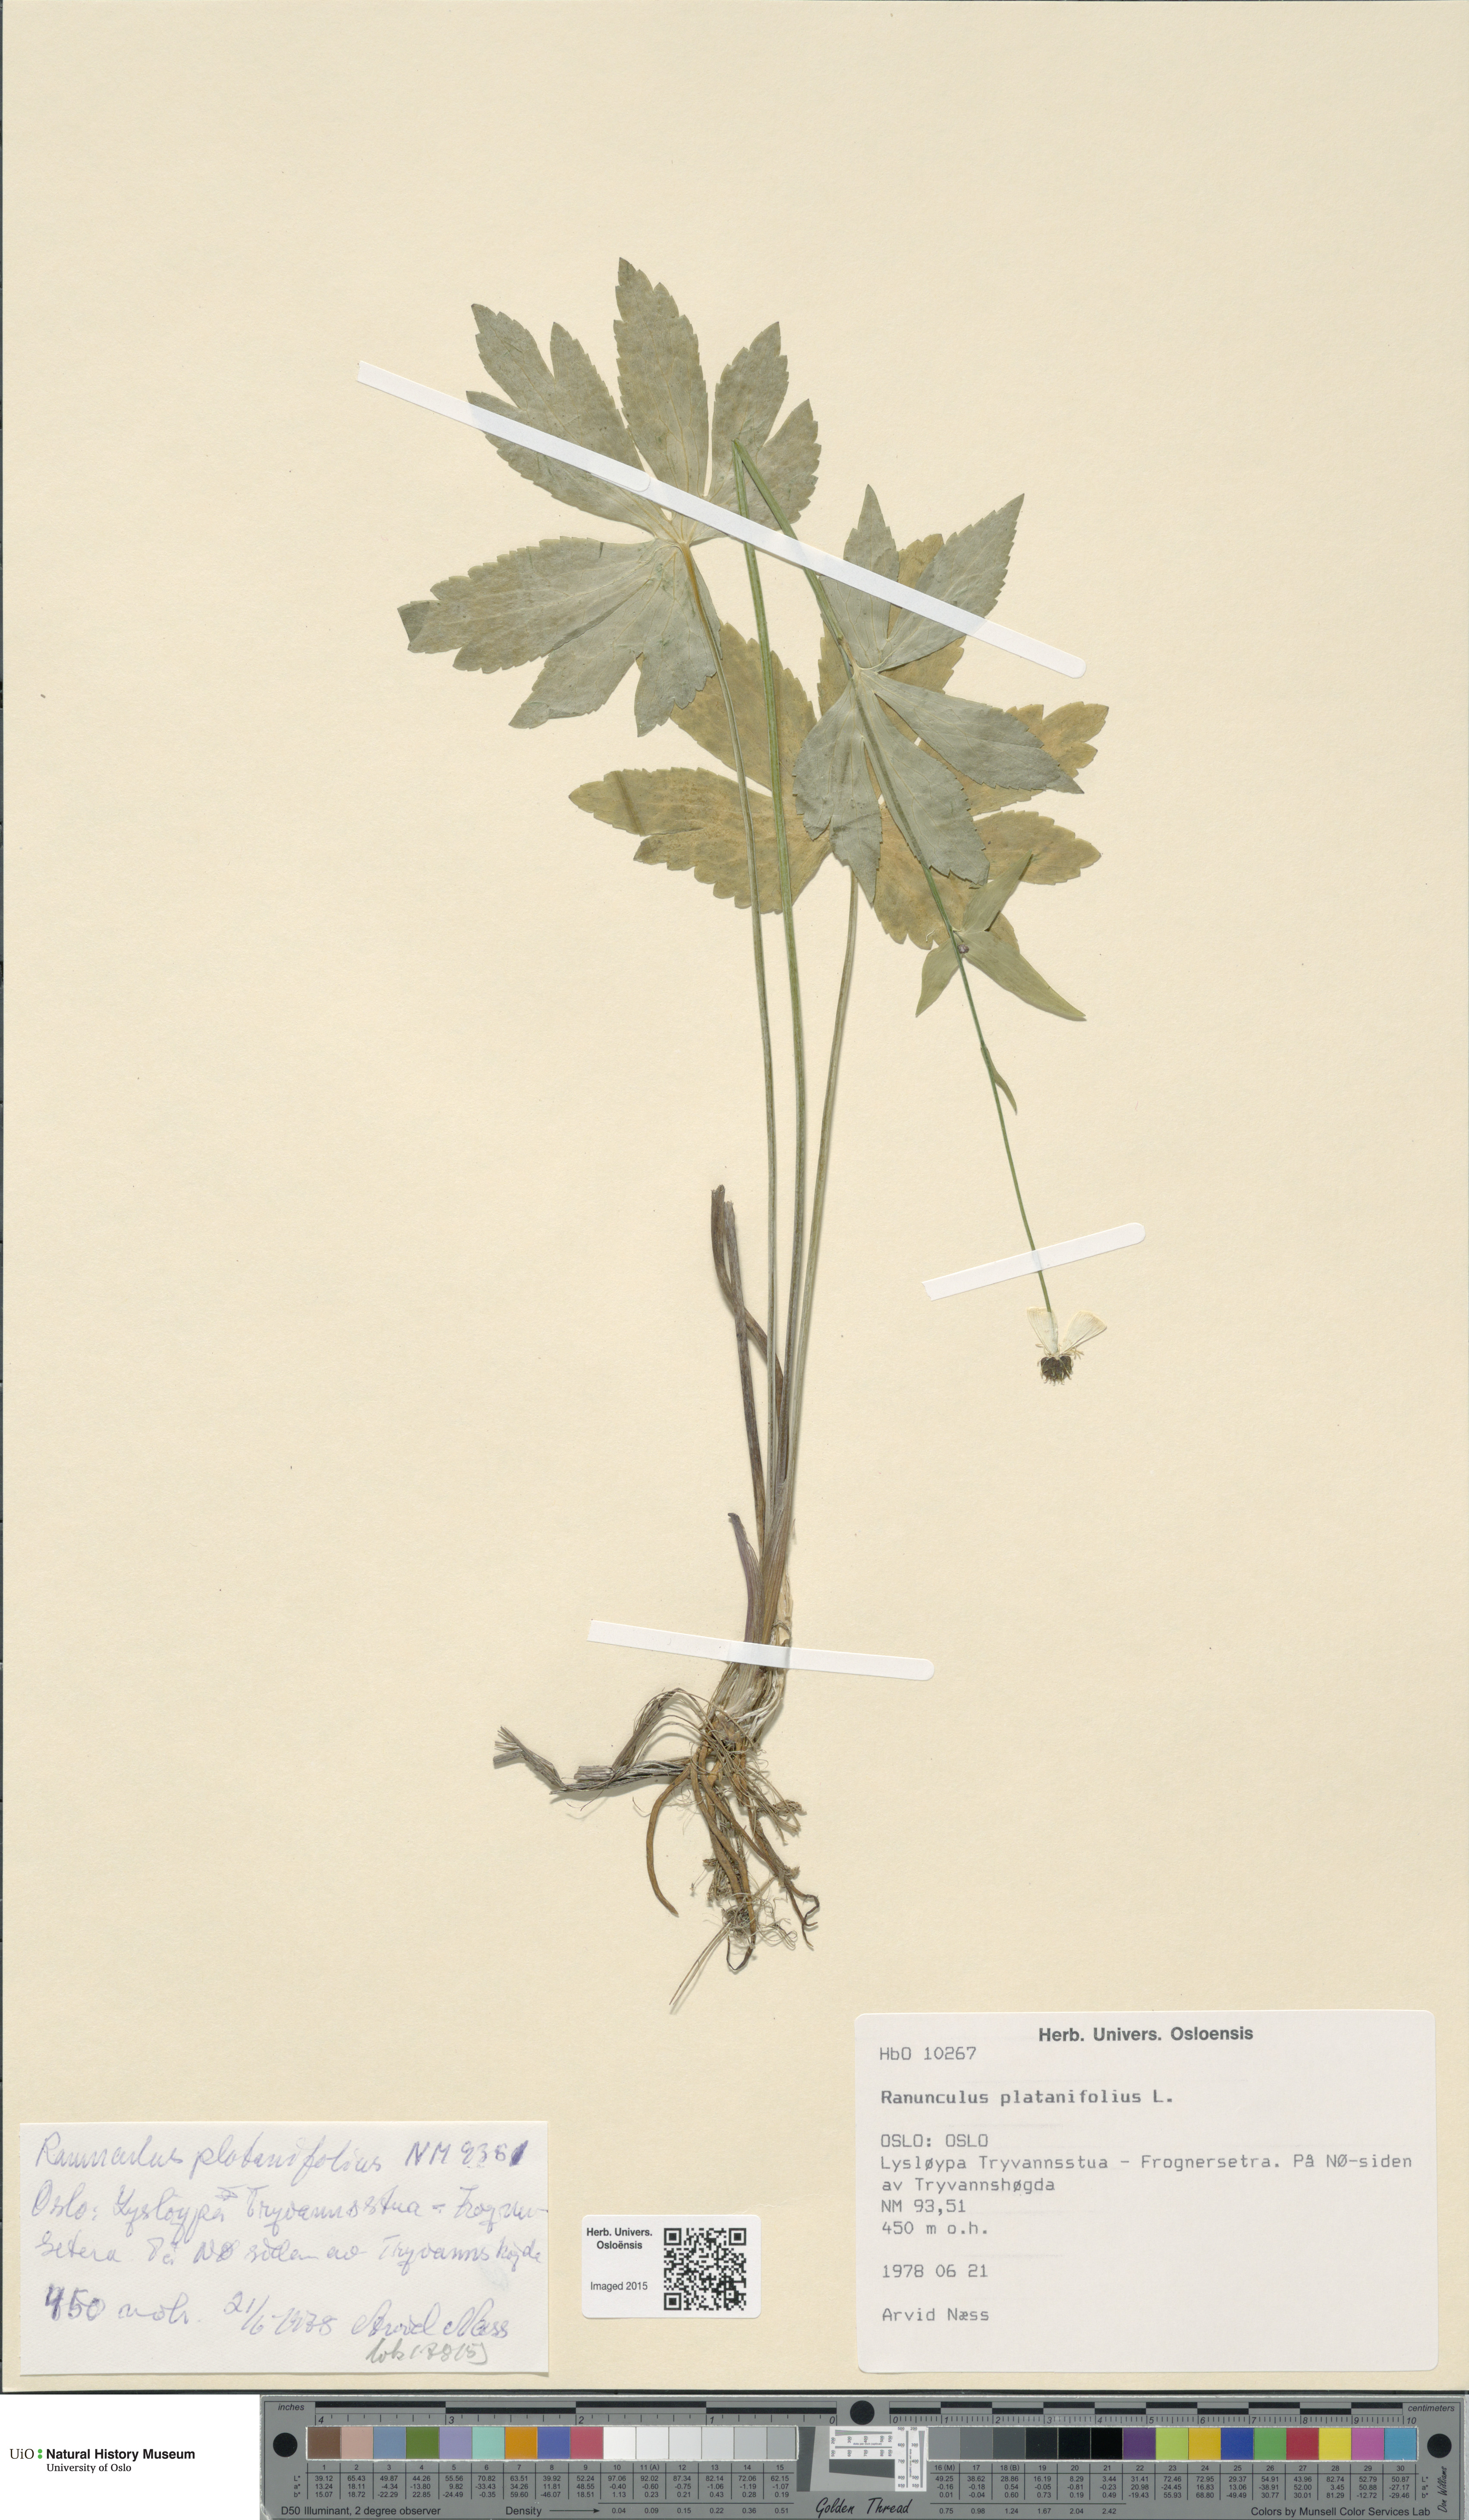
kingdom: Plantae
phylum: Tracheophyta
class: Magnoliopsida
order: Ranunculales
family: Ranunculaceae
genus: Ranunculus
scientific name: Ranunculus platanifolius
